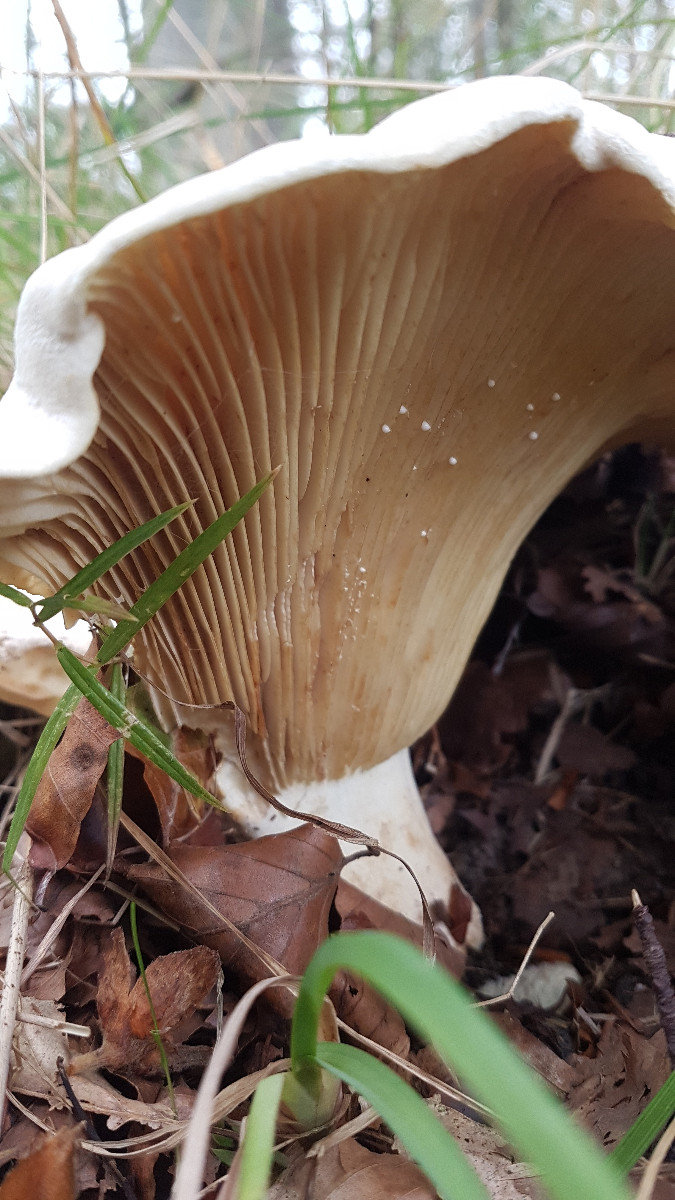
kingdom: Fungi
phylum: Basidiomycota
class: Agaricomycetes
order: Russulales
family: Russulaceae
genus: Lactifluus
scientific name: Lactifluus
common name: mælkehat
